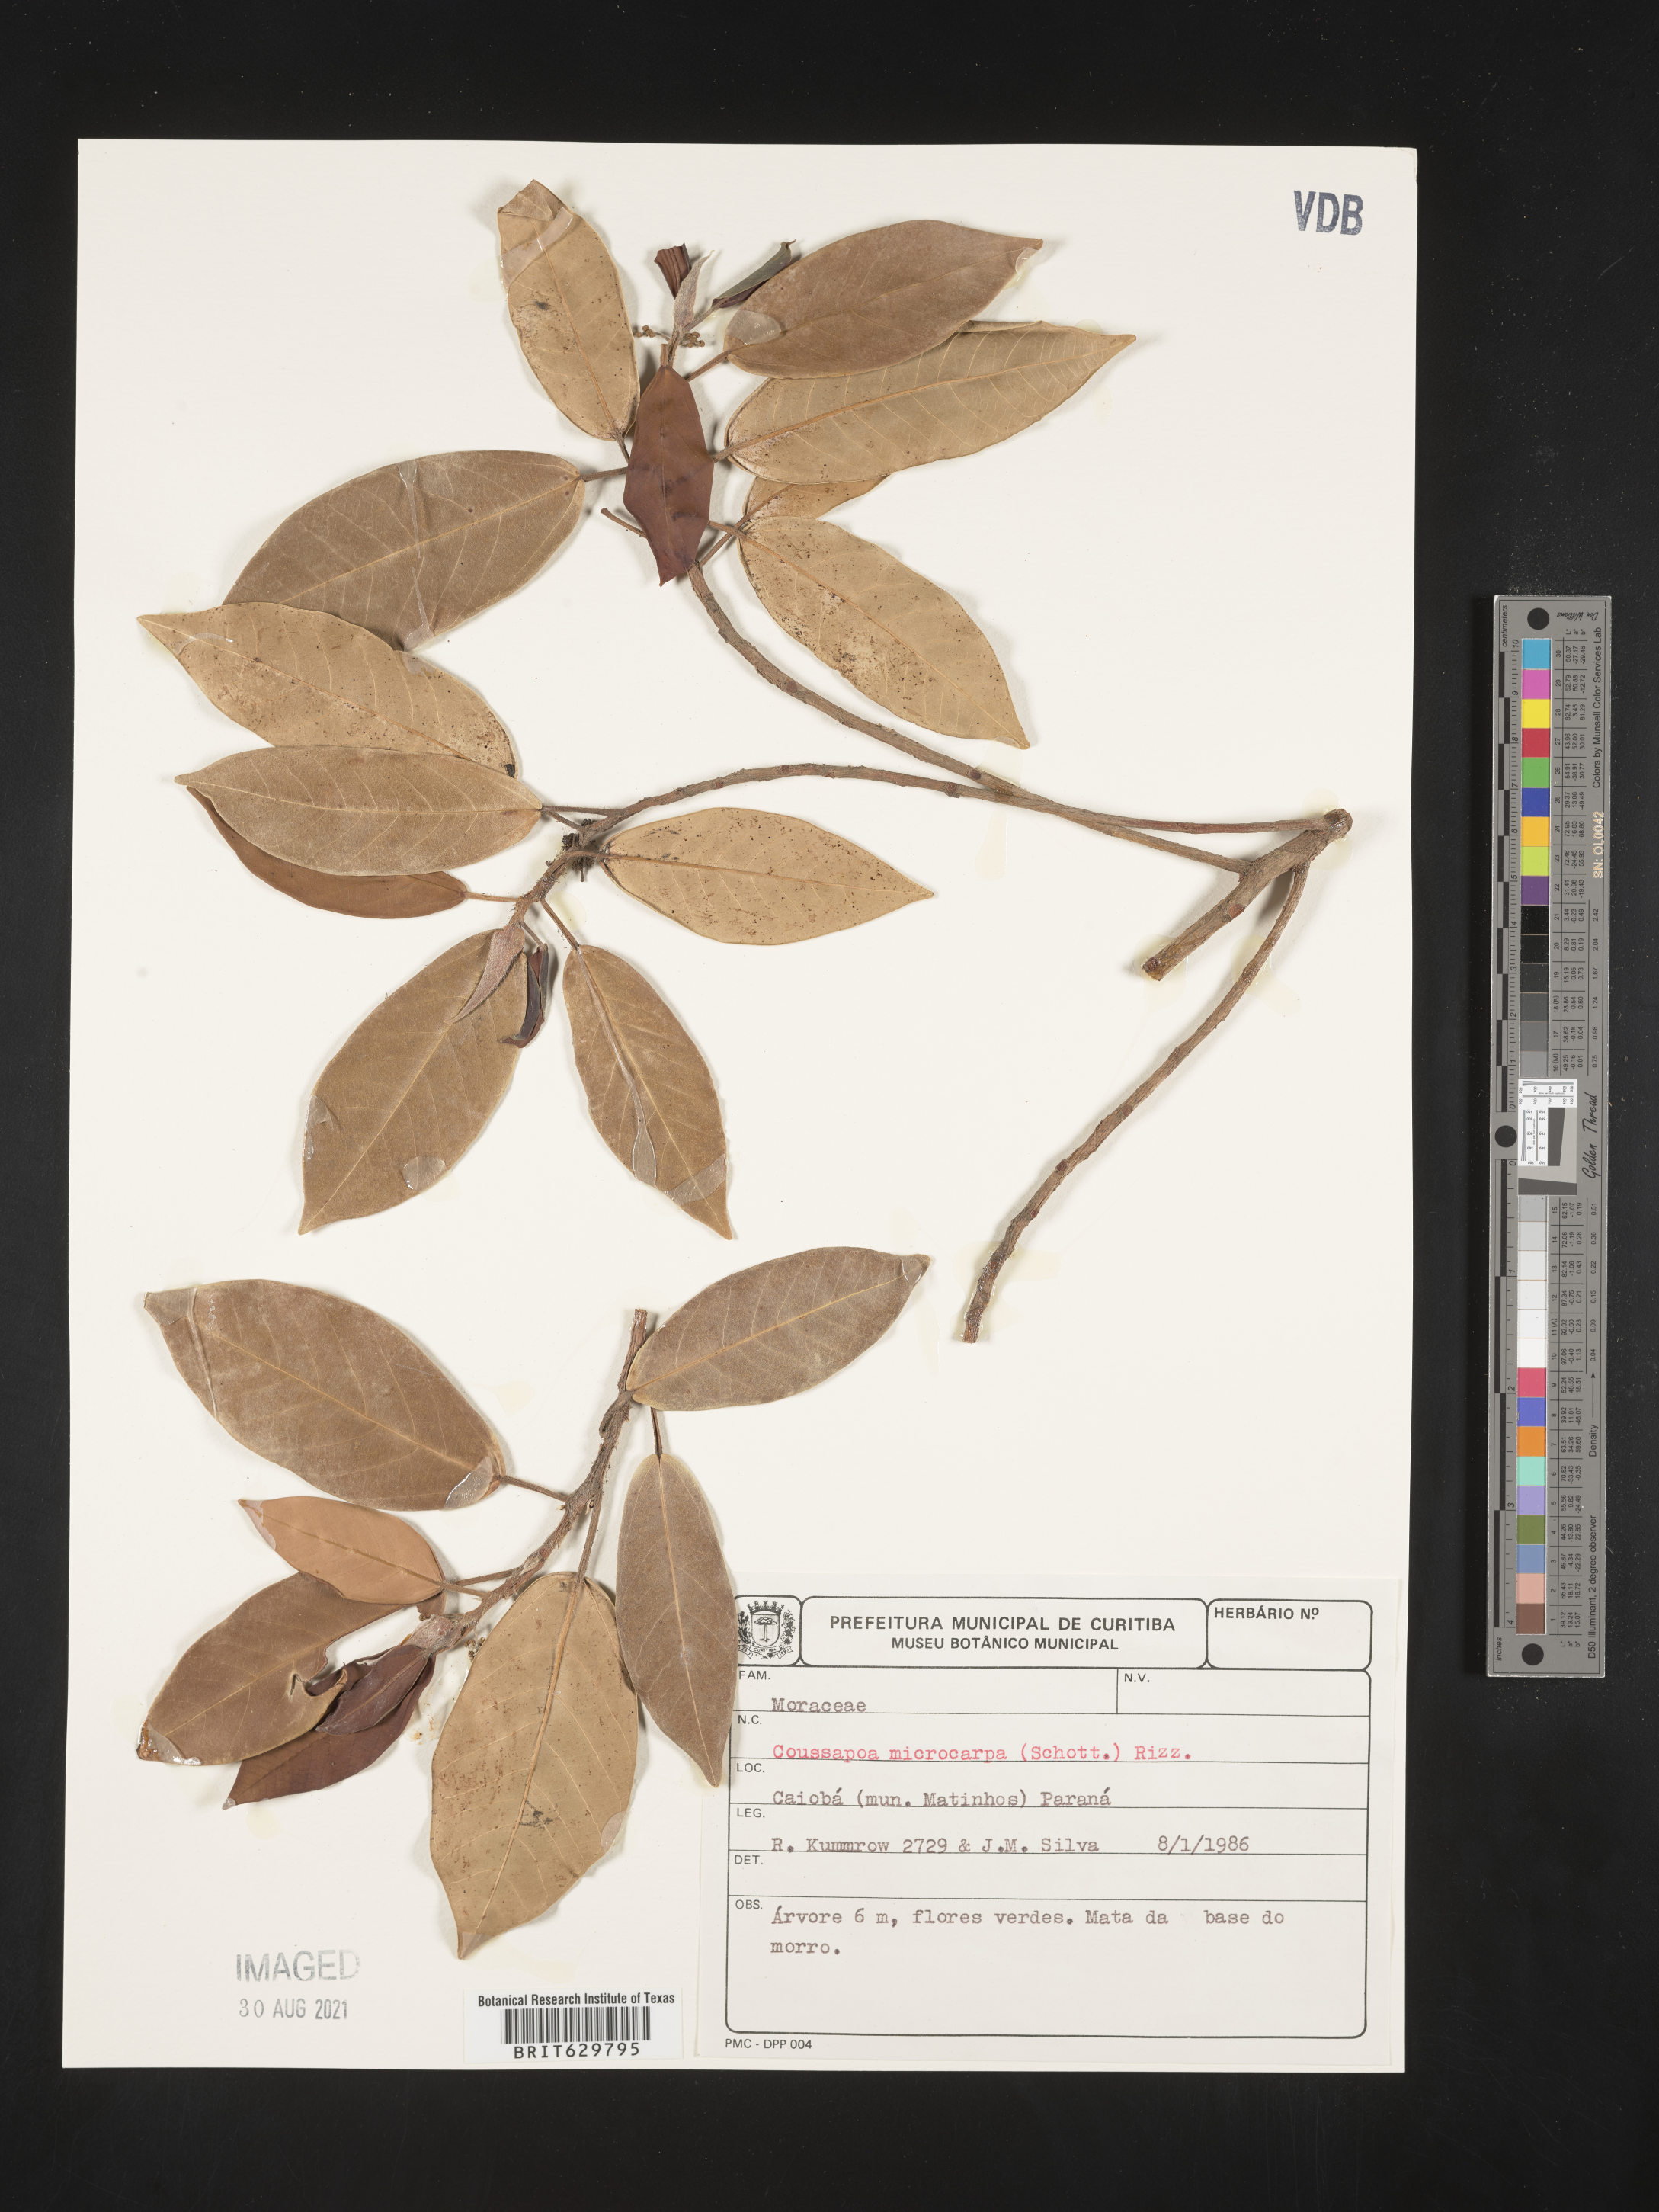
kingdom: Plantae
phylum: Tracheophyta
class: Magnoliopsida
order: Rosales
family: Urticaceae
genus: Coussapoa
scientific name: Coussapoa
